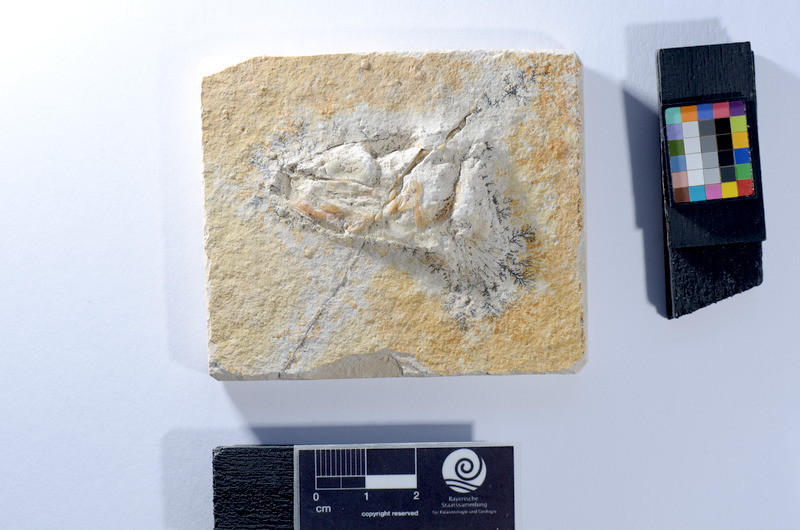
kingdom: Animalia
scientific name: Animalia
